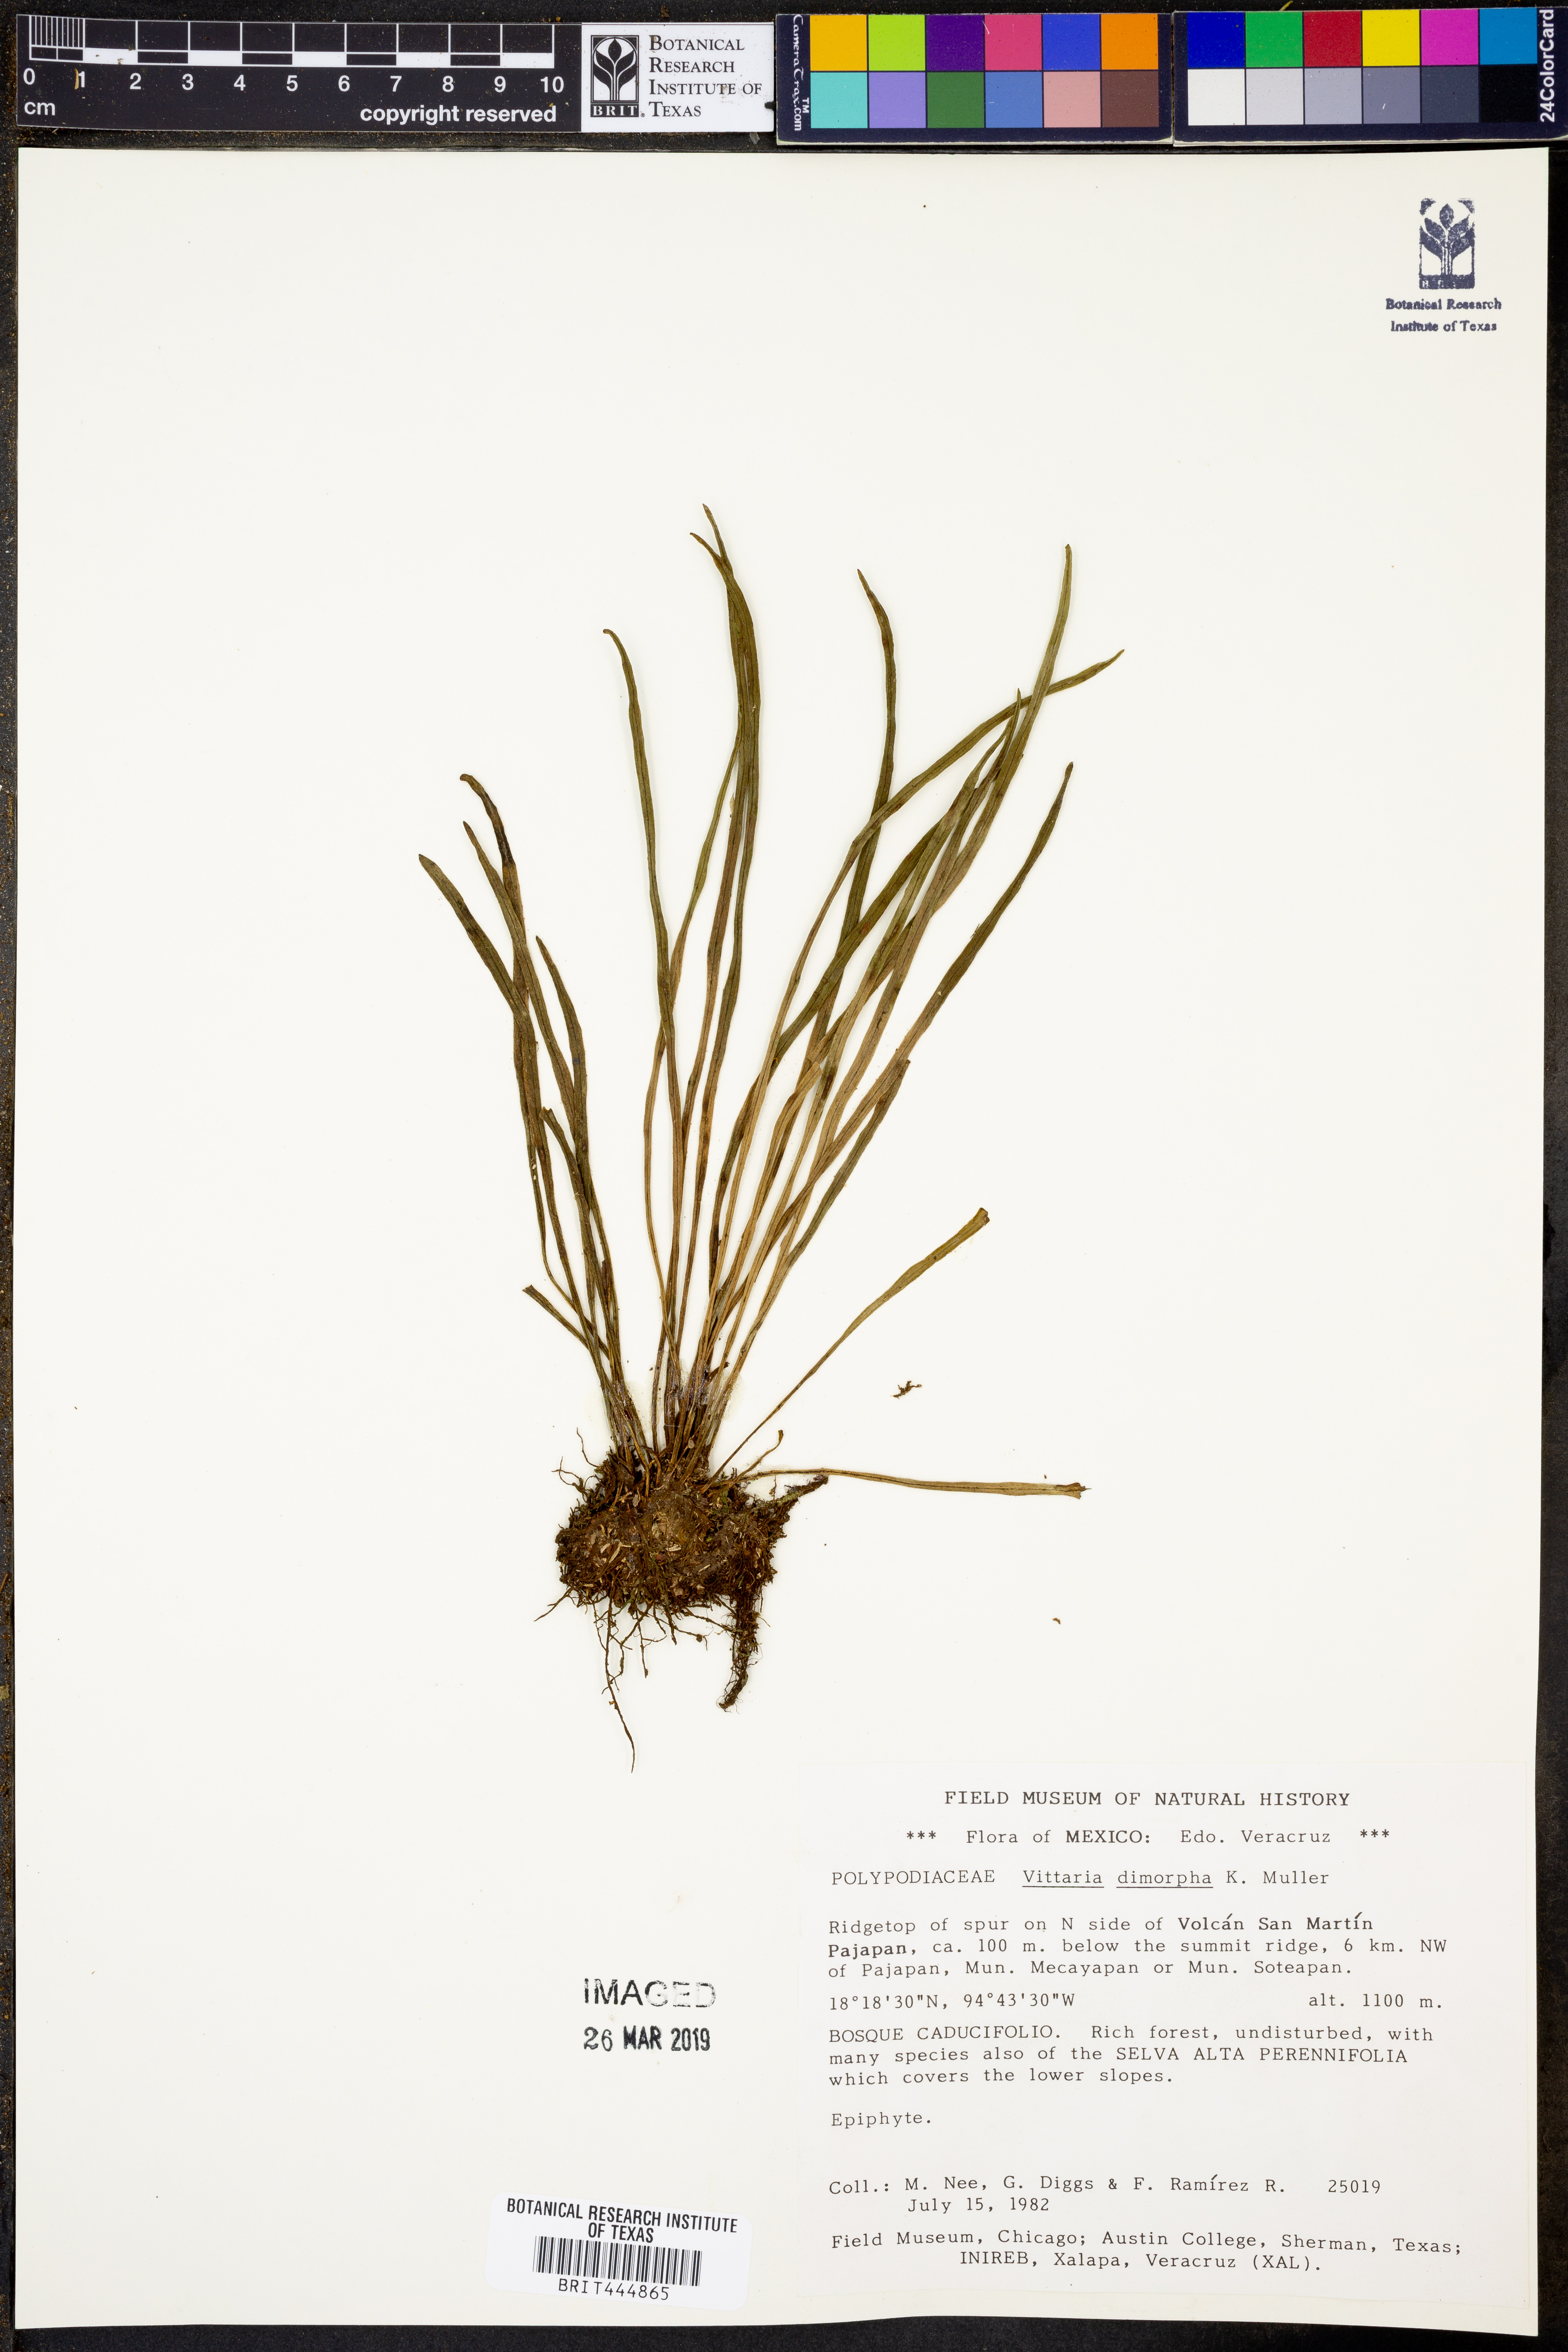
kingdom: Plantae
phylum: Tracheophyta
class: Polypodiopsida
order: Polypodiales
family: Pteridaceae
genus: Vittaria
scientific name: Vittaria graminifolia
